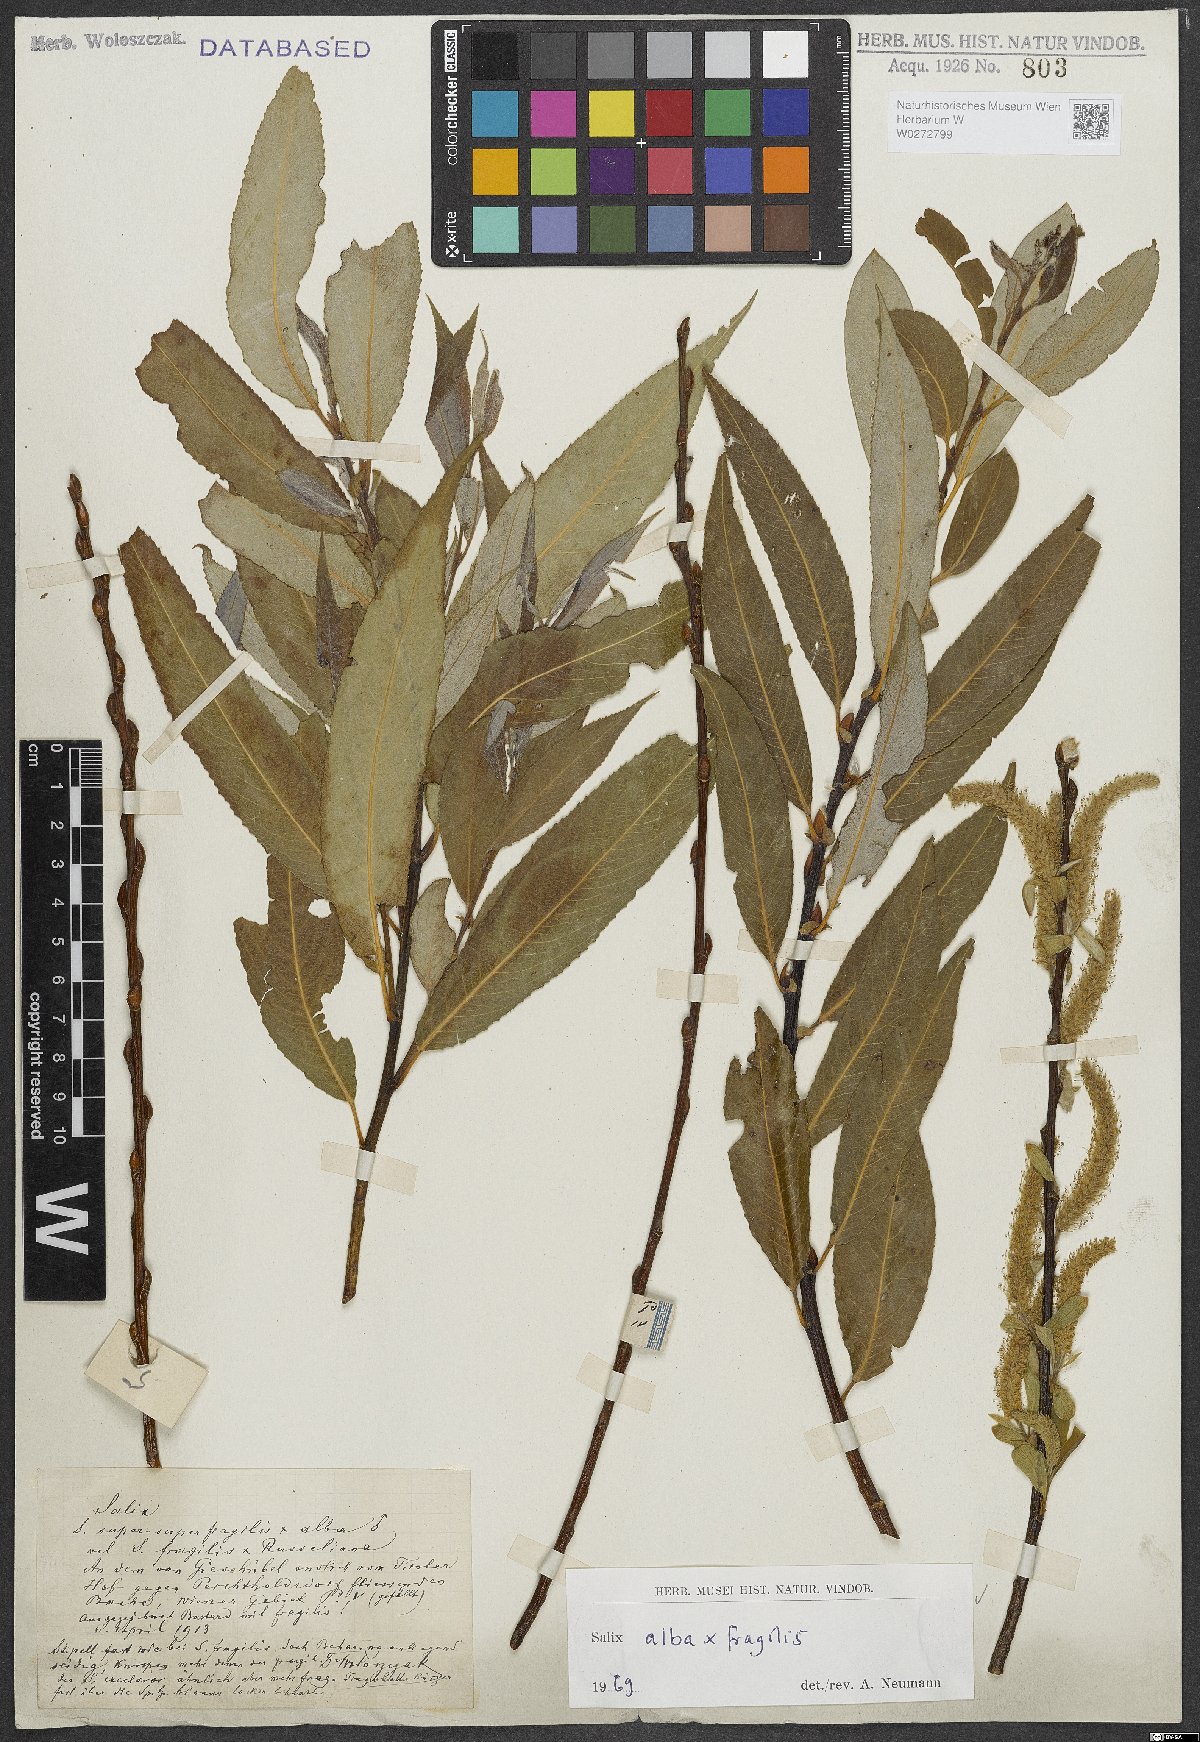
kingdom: Plantae
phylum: Tracheophyta
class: Magnoliopsida
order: Malpighiales
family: Salicaceae
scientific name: Salicaceae
